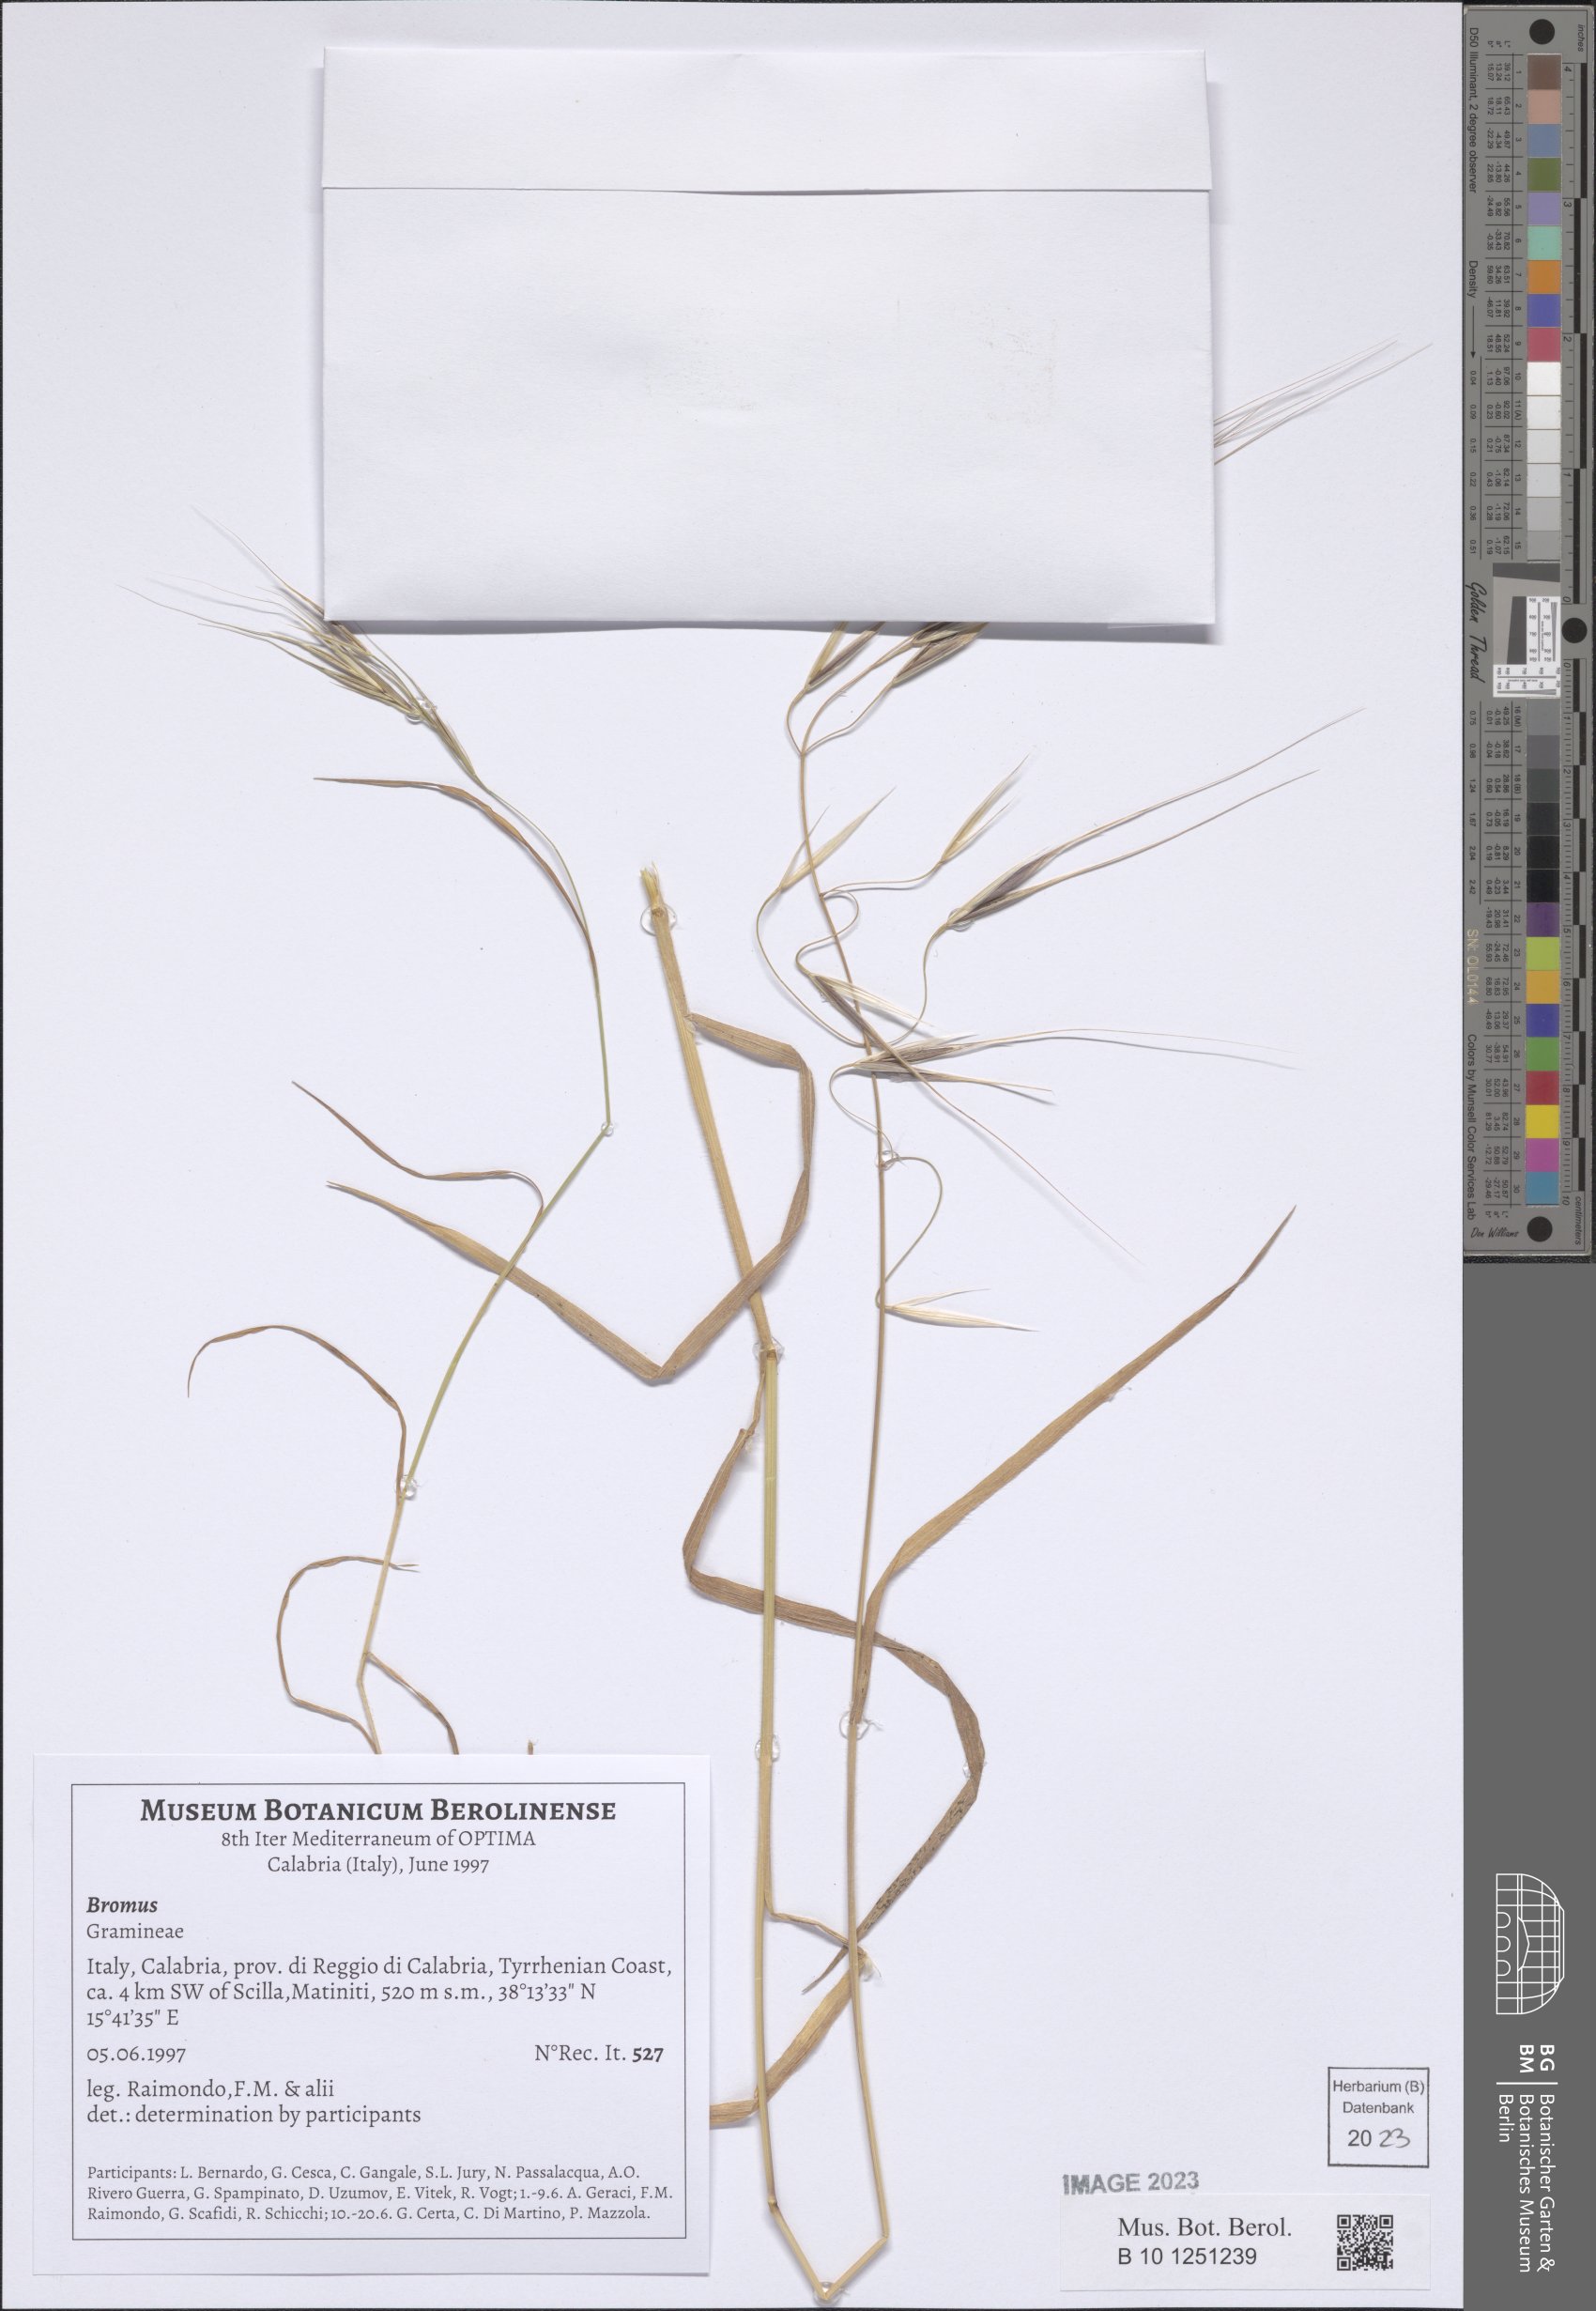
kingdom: Plantae
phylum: Tracheophyta
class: Liliopsida
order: Poales
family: Poaceae
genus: Bromus
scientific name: Bromus
